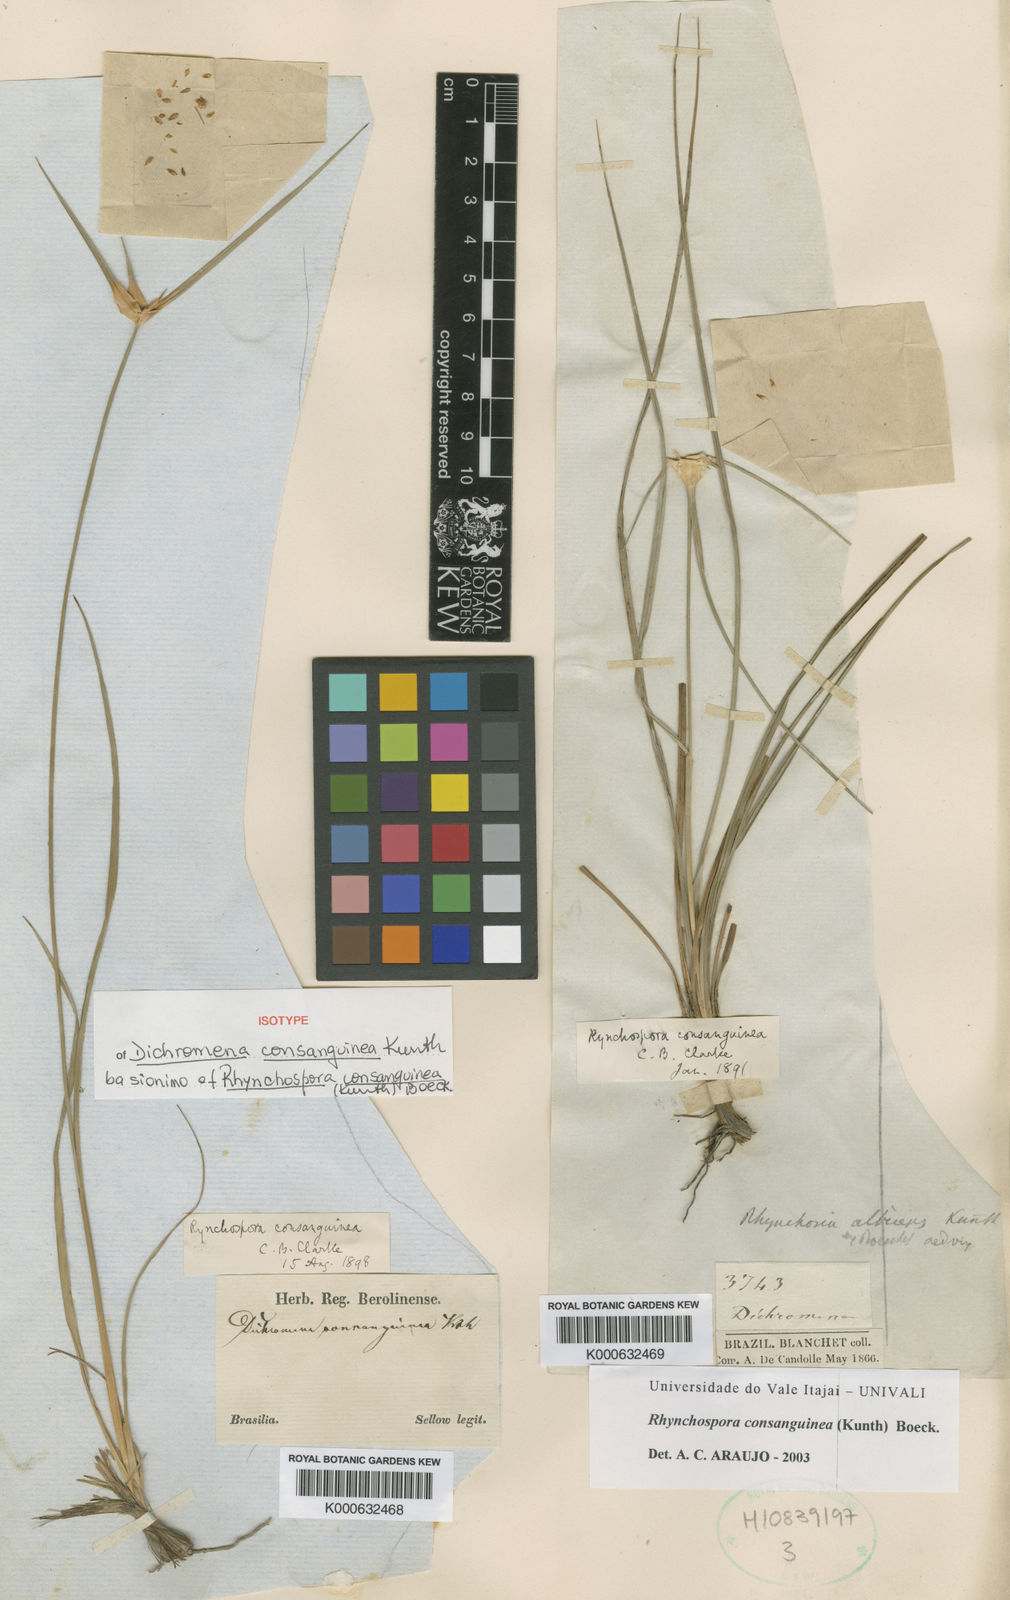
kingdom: Plantae
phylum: Tracheophyta
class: Liliopsida
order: Poales
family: Cyperaceae
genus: Rhynchospora
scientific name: Rhynchospora consanguinea
